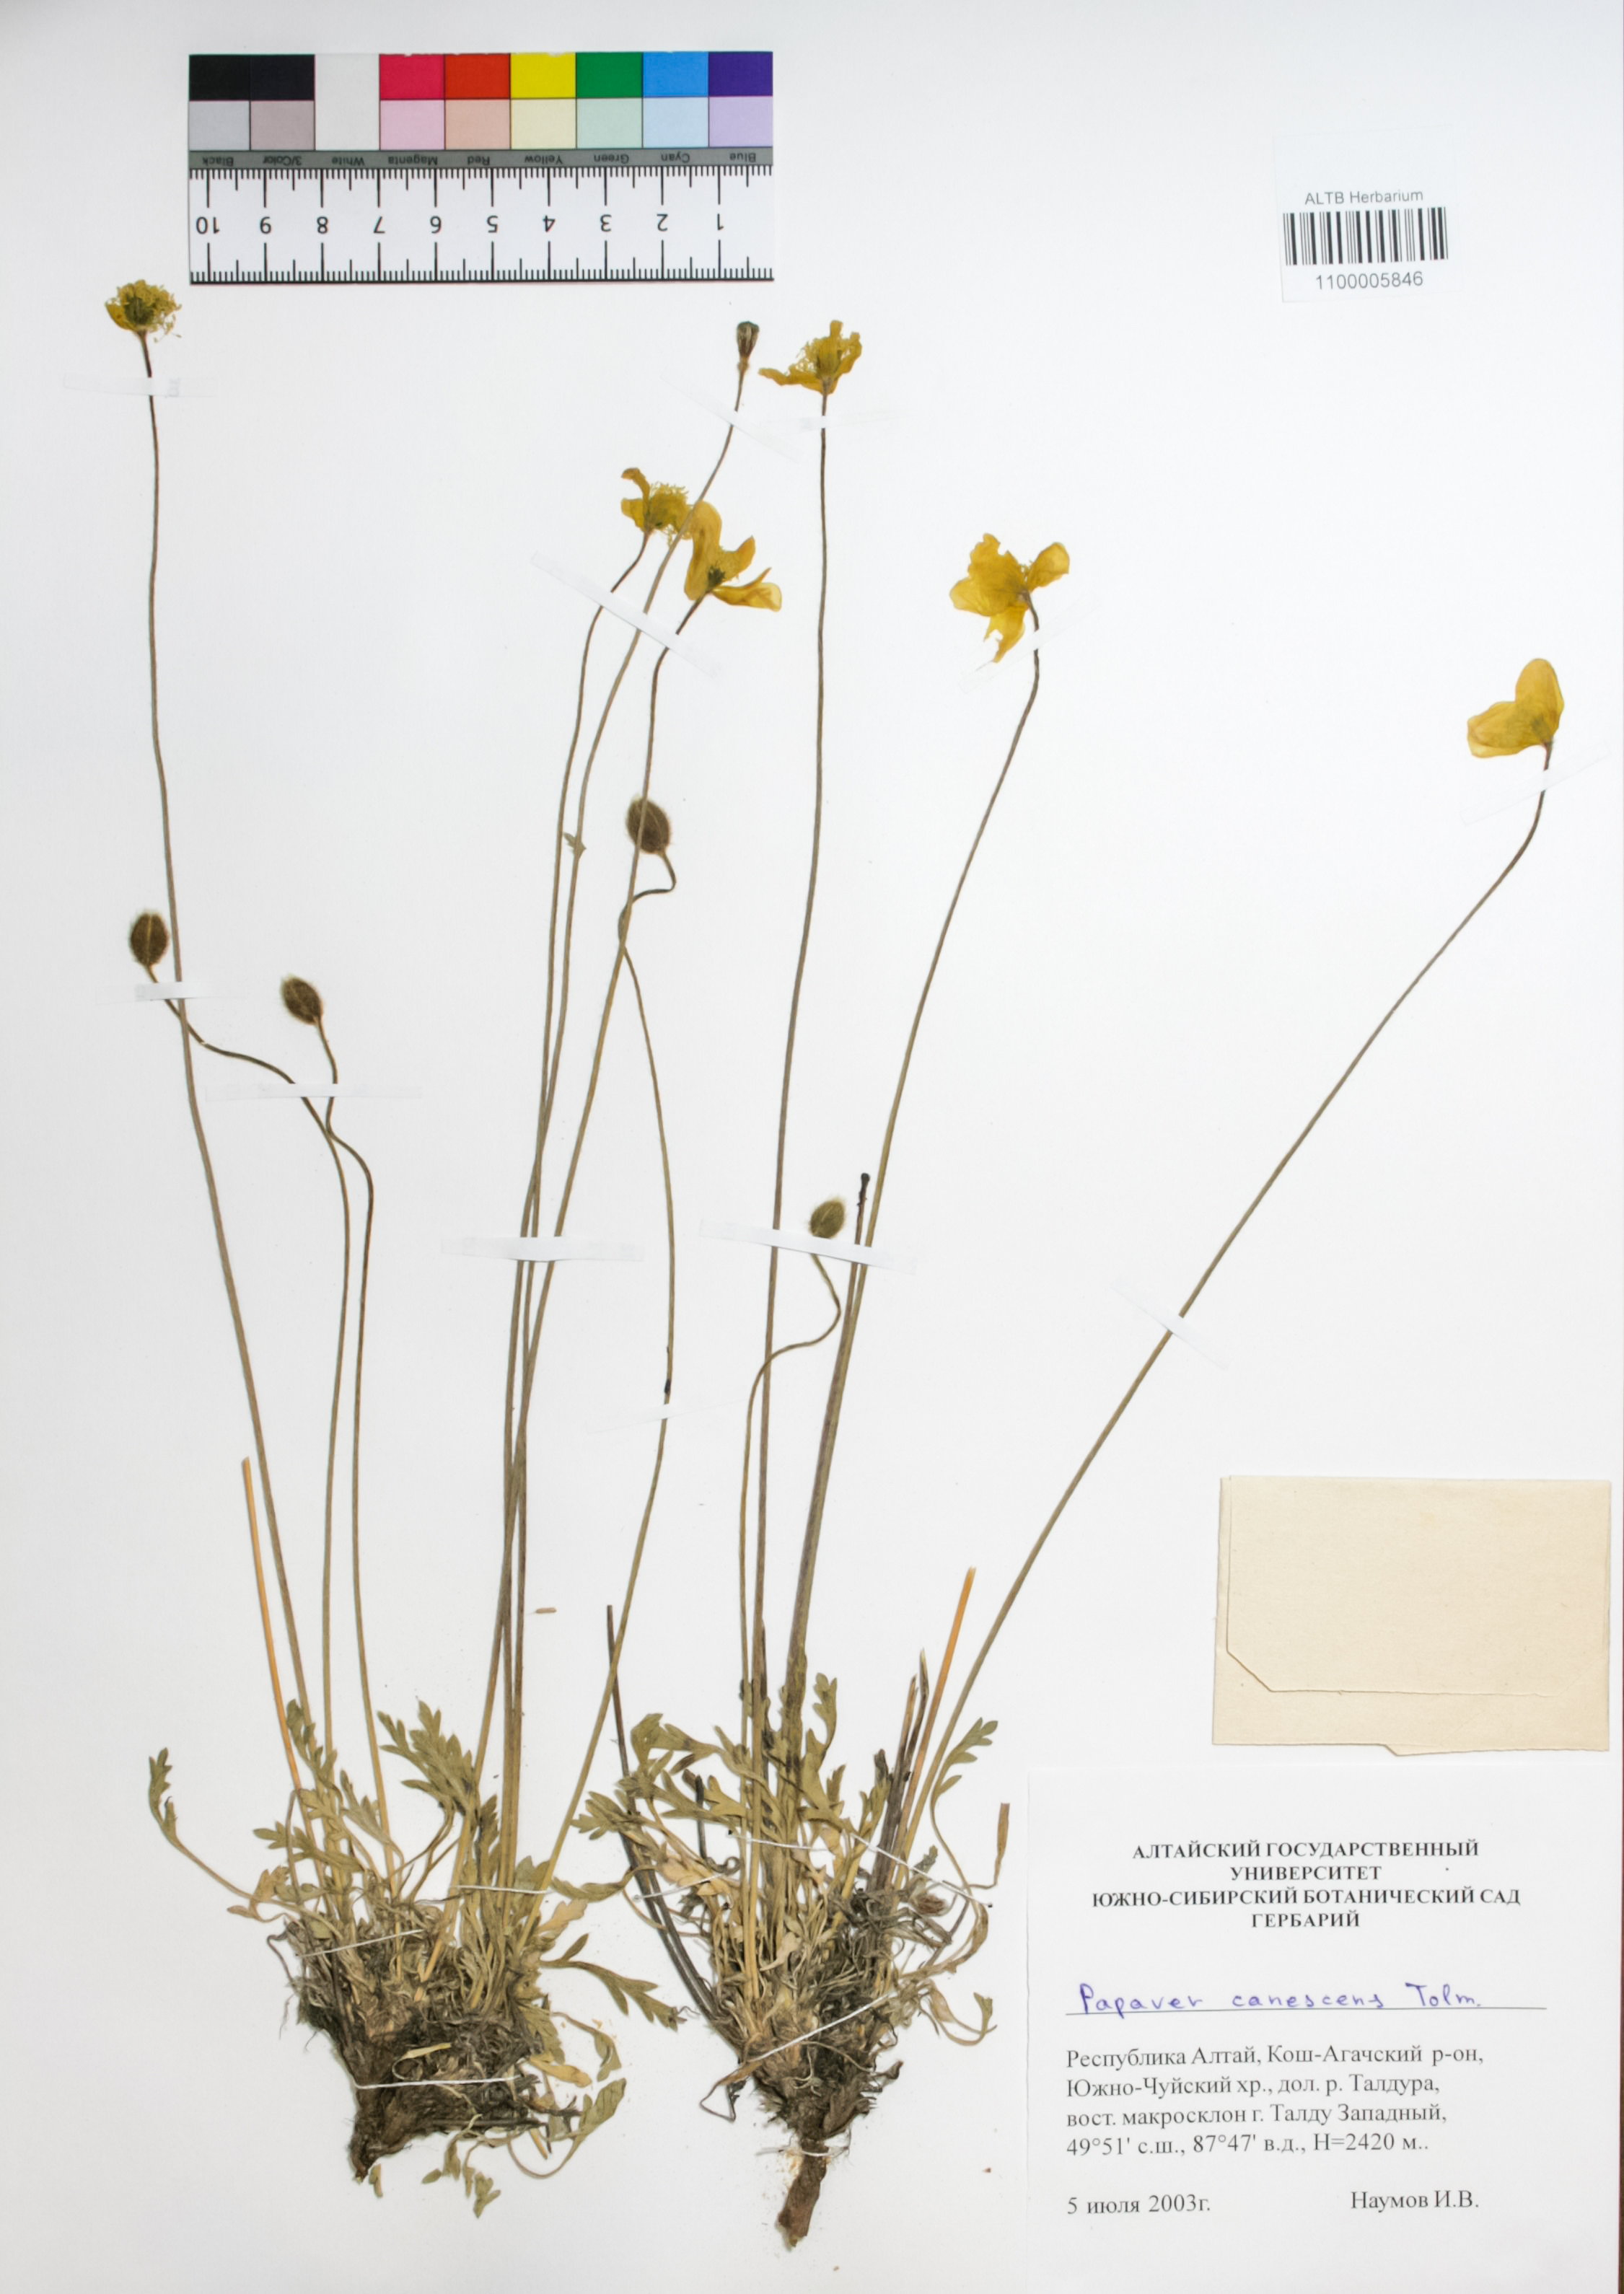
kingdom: Plantae
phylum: Tracheophyta
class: Magnoliopsida
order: Ranunculales
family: Papaveraceae
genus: Papaver
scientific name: Papaver canescens
